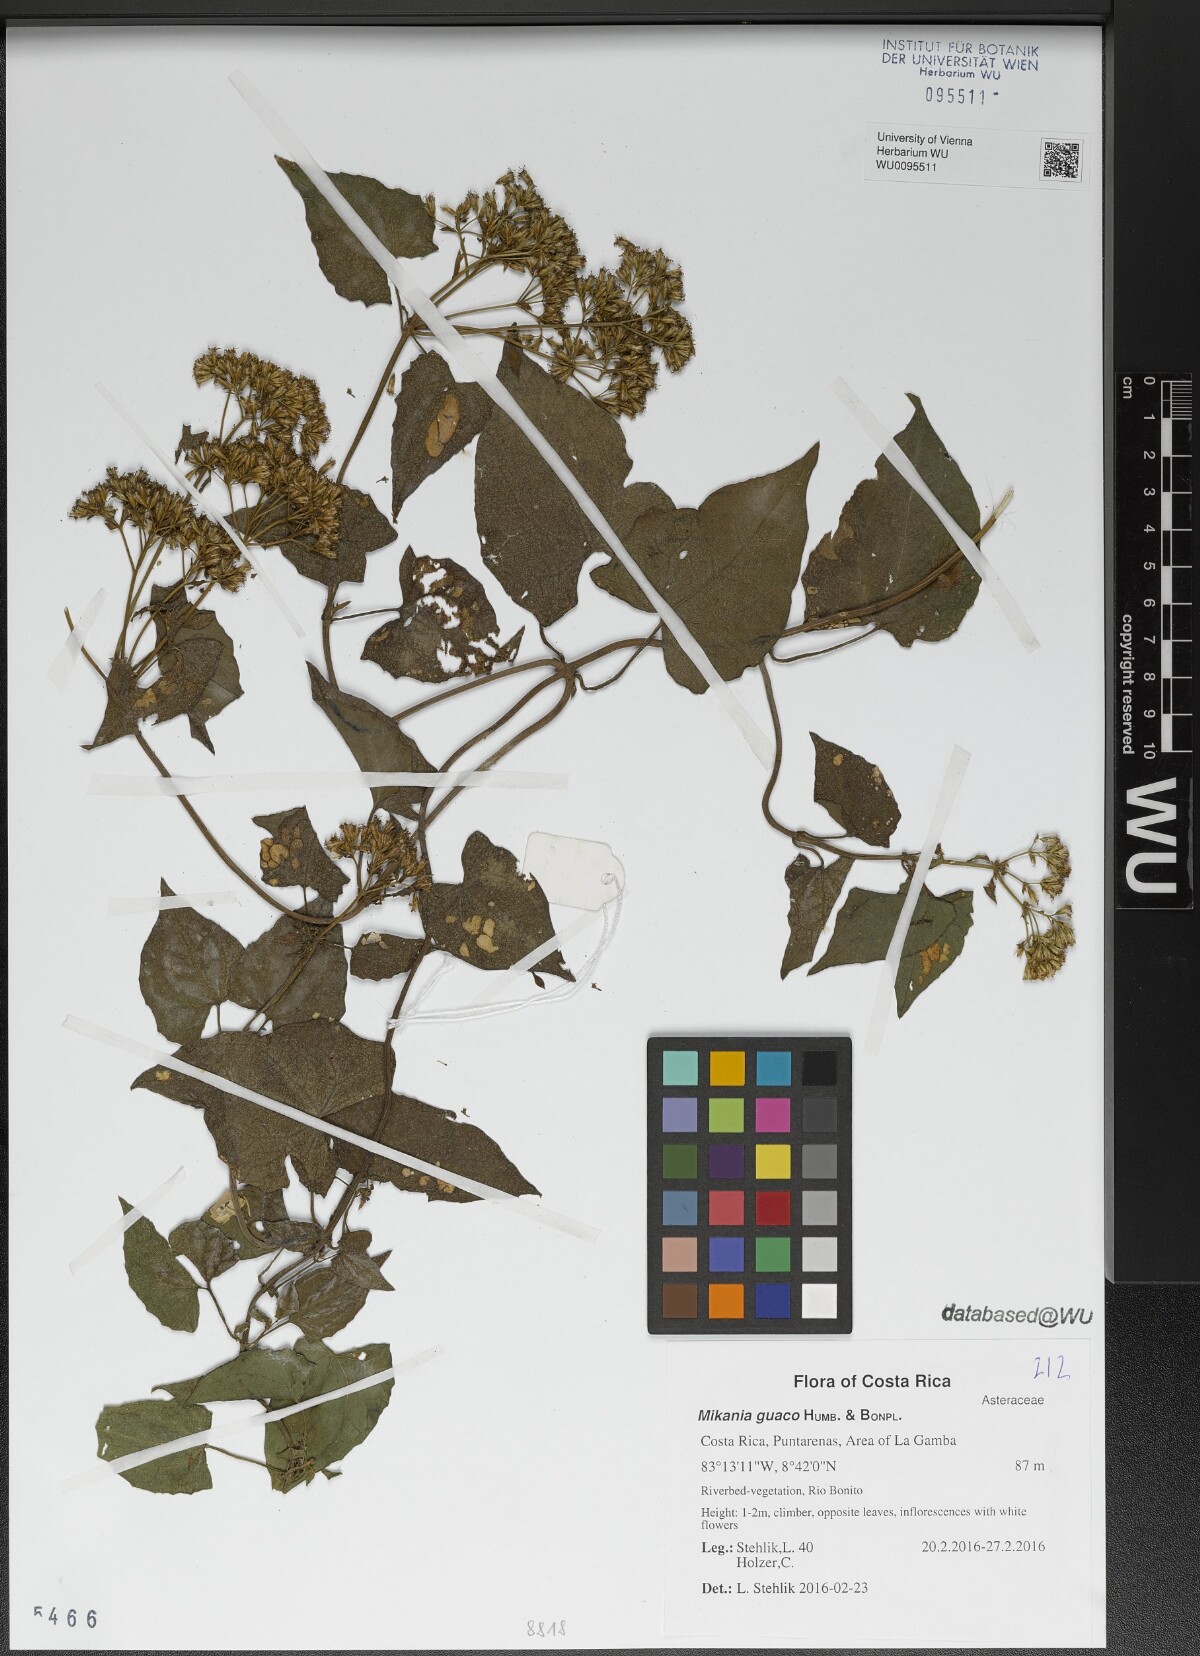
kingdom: Plantae
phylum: Tracheophyta
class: Magnoliopsida
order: Asterales
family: Asteraceae
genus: Mikania
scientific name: Mikania guaco
